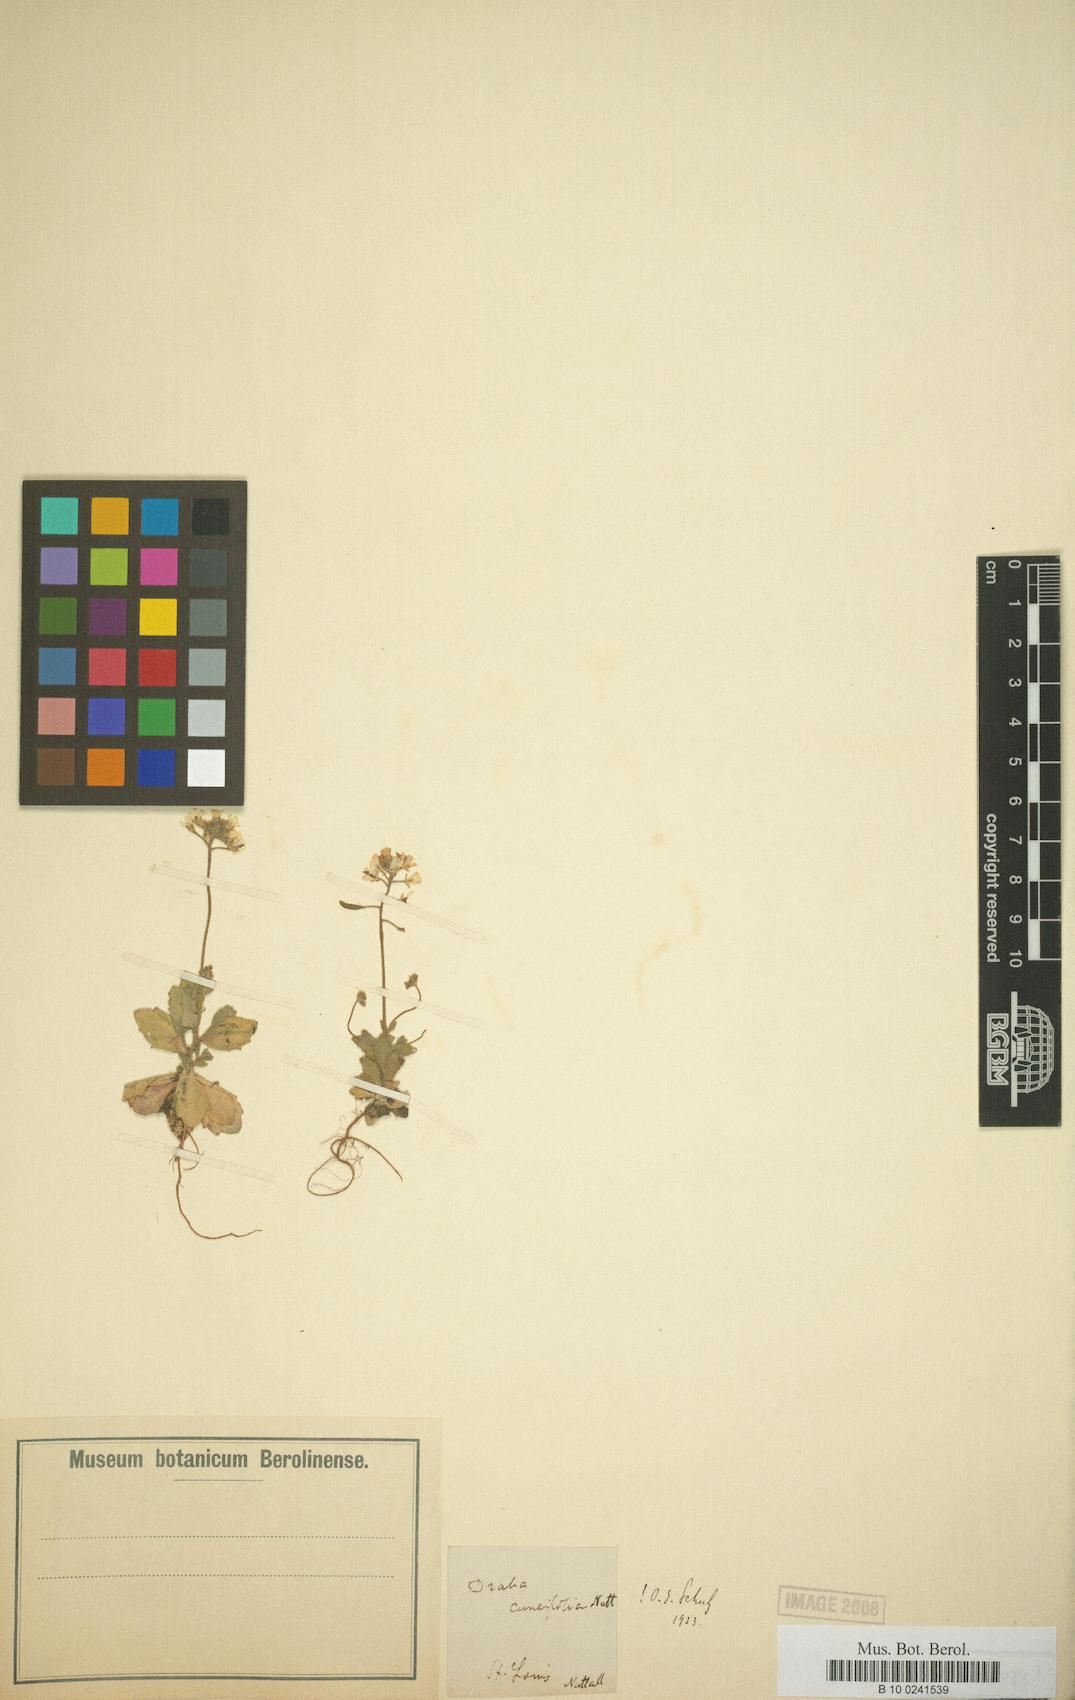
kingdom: Plantae
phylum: Tracheophyta
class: Magnoliopsida
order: Brassicales
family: Brassicaceae
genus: Tomostima
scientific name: Tomostima cuneifolia
